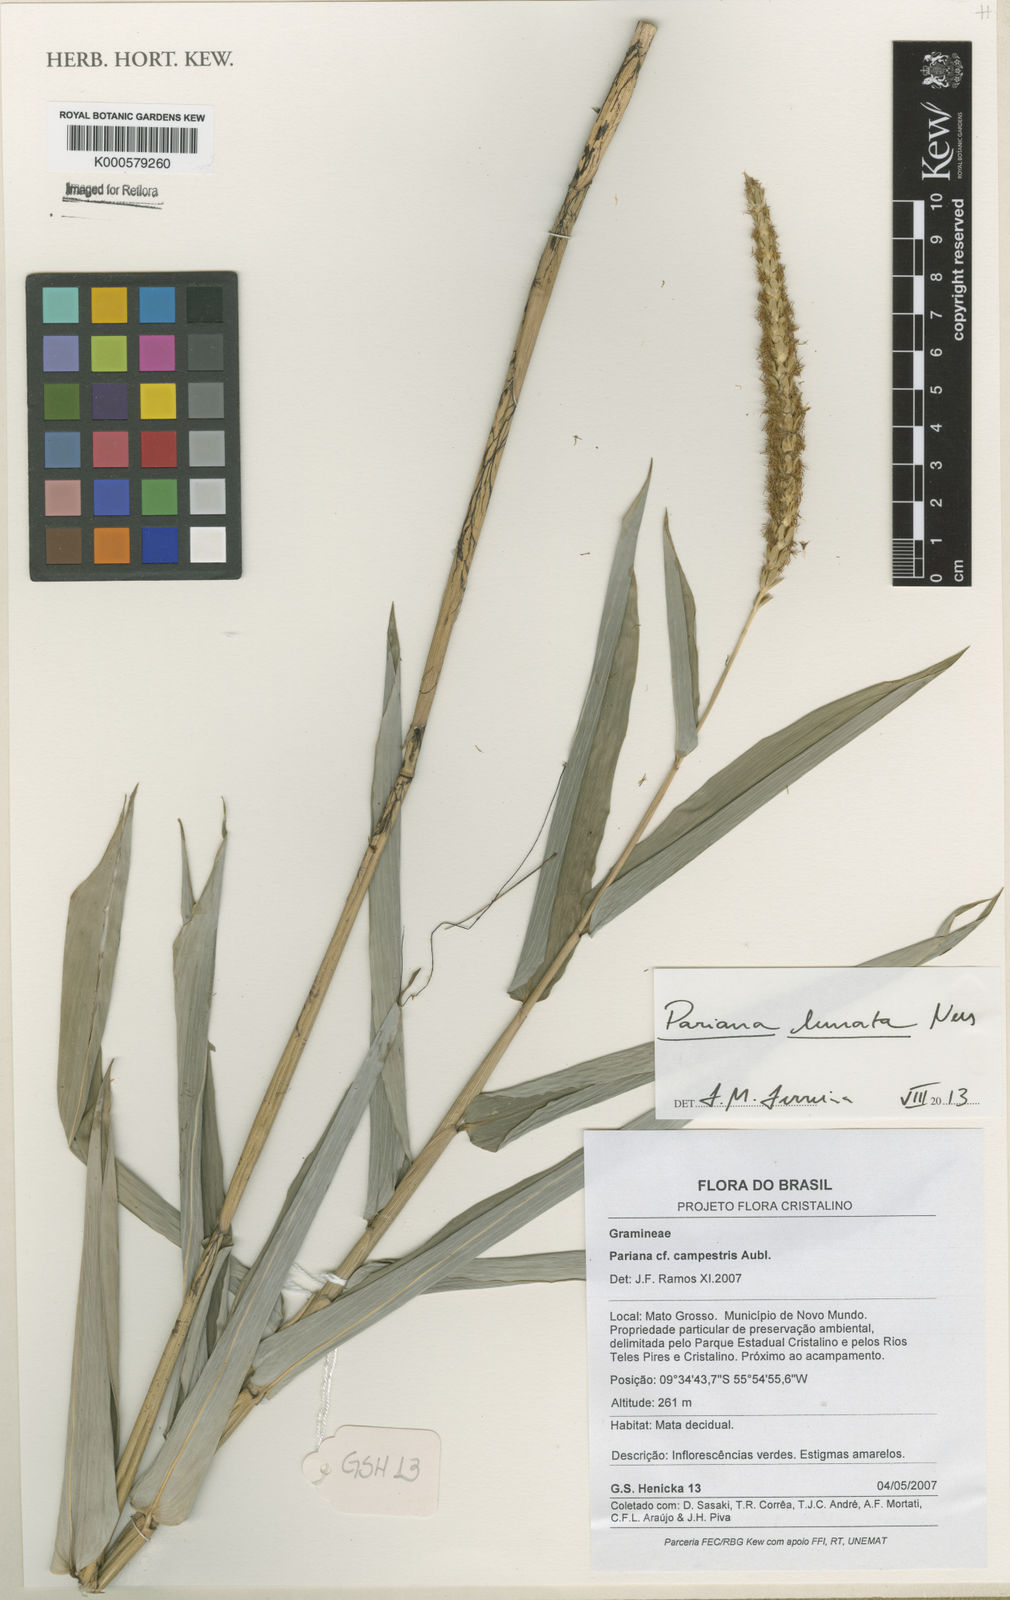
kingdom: Plantae
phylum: Tracheophyta
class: Liliopsida
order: Poales
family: Poaceae
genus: Pariana
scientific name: Pariana campestris
